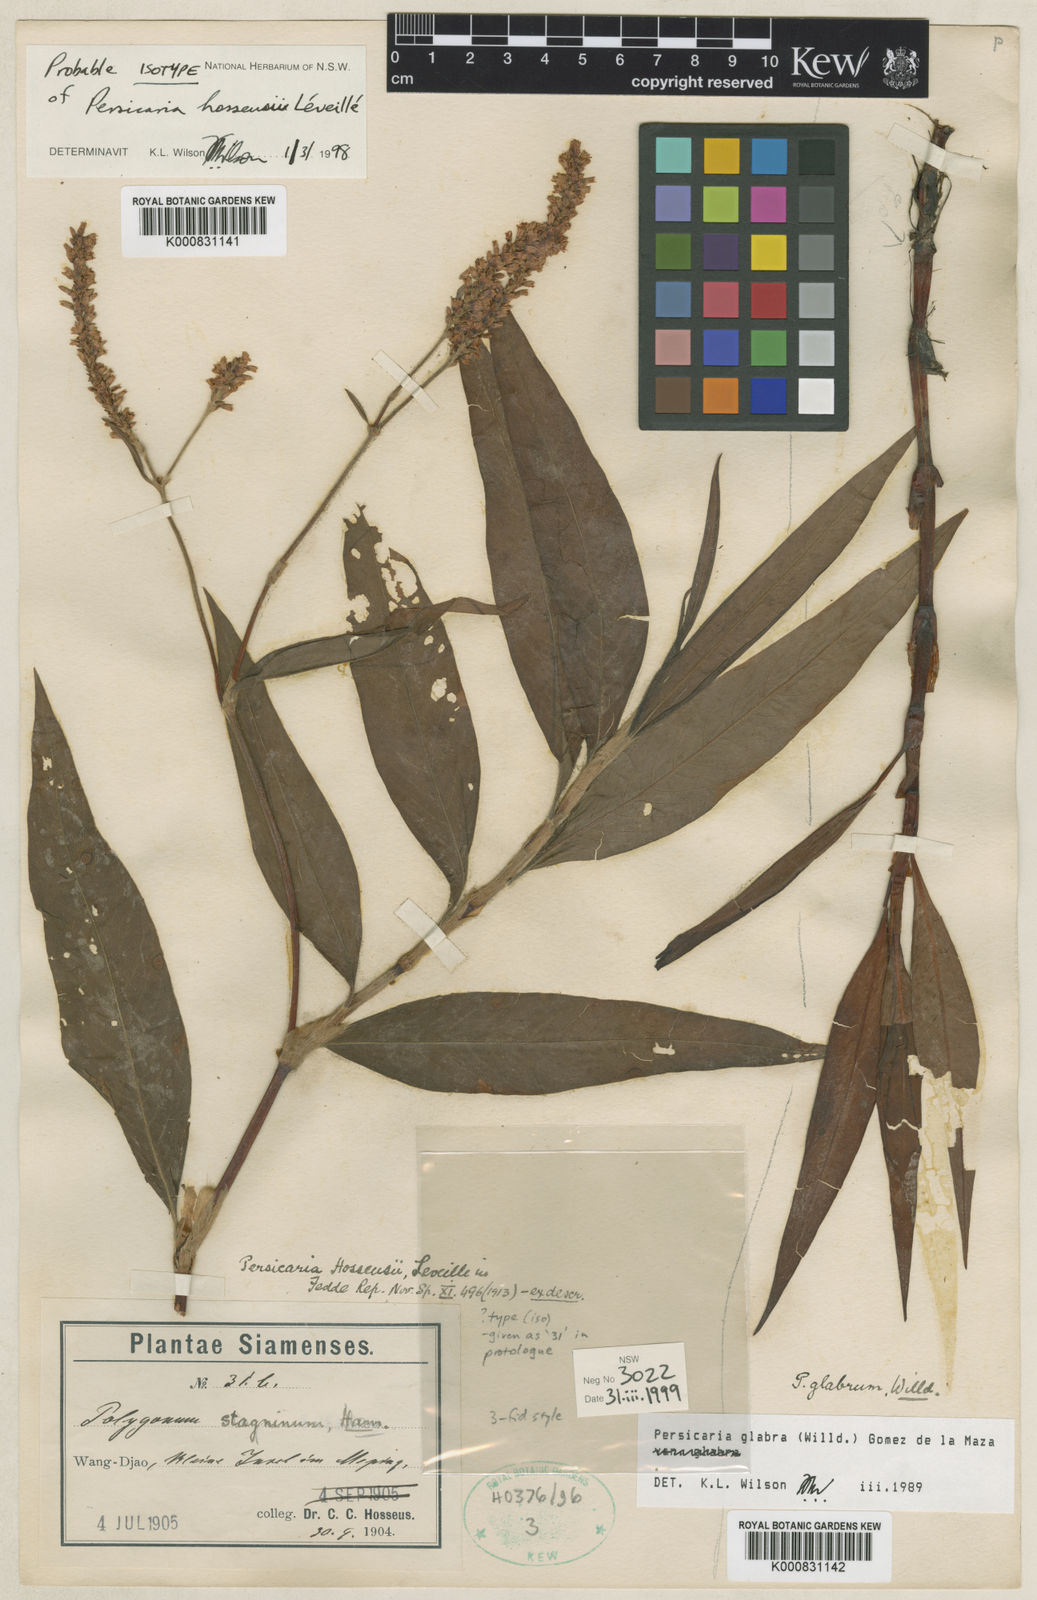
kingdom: Plantae
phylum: Tracheophyta
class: Magnoliopsida
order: Caryophyllales
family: Polygonaceae
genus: Persicaria
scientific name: Persicaria
